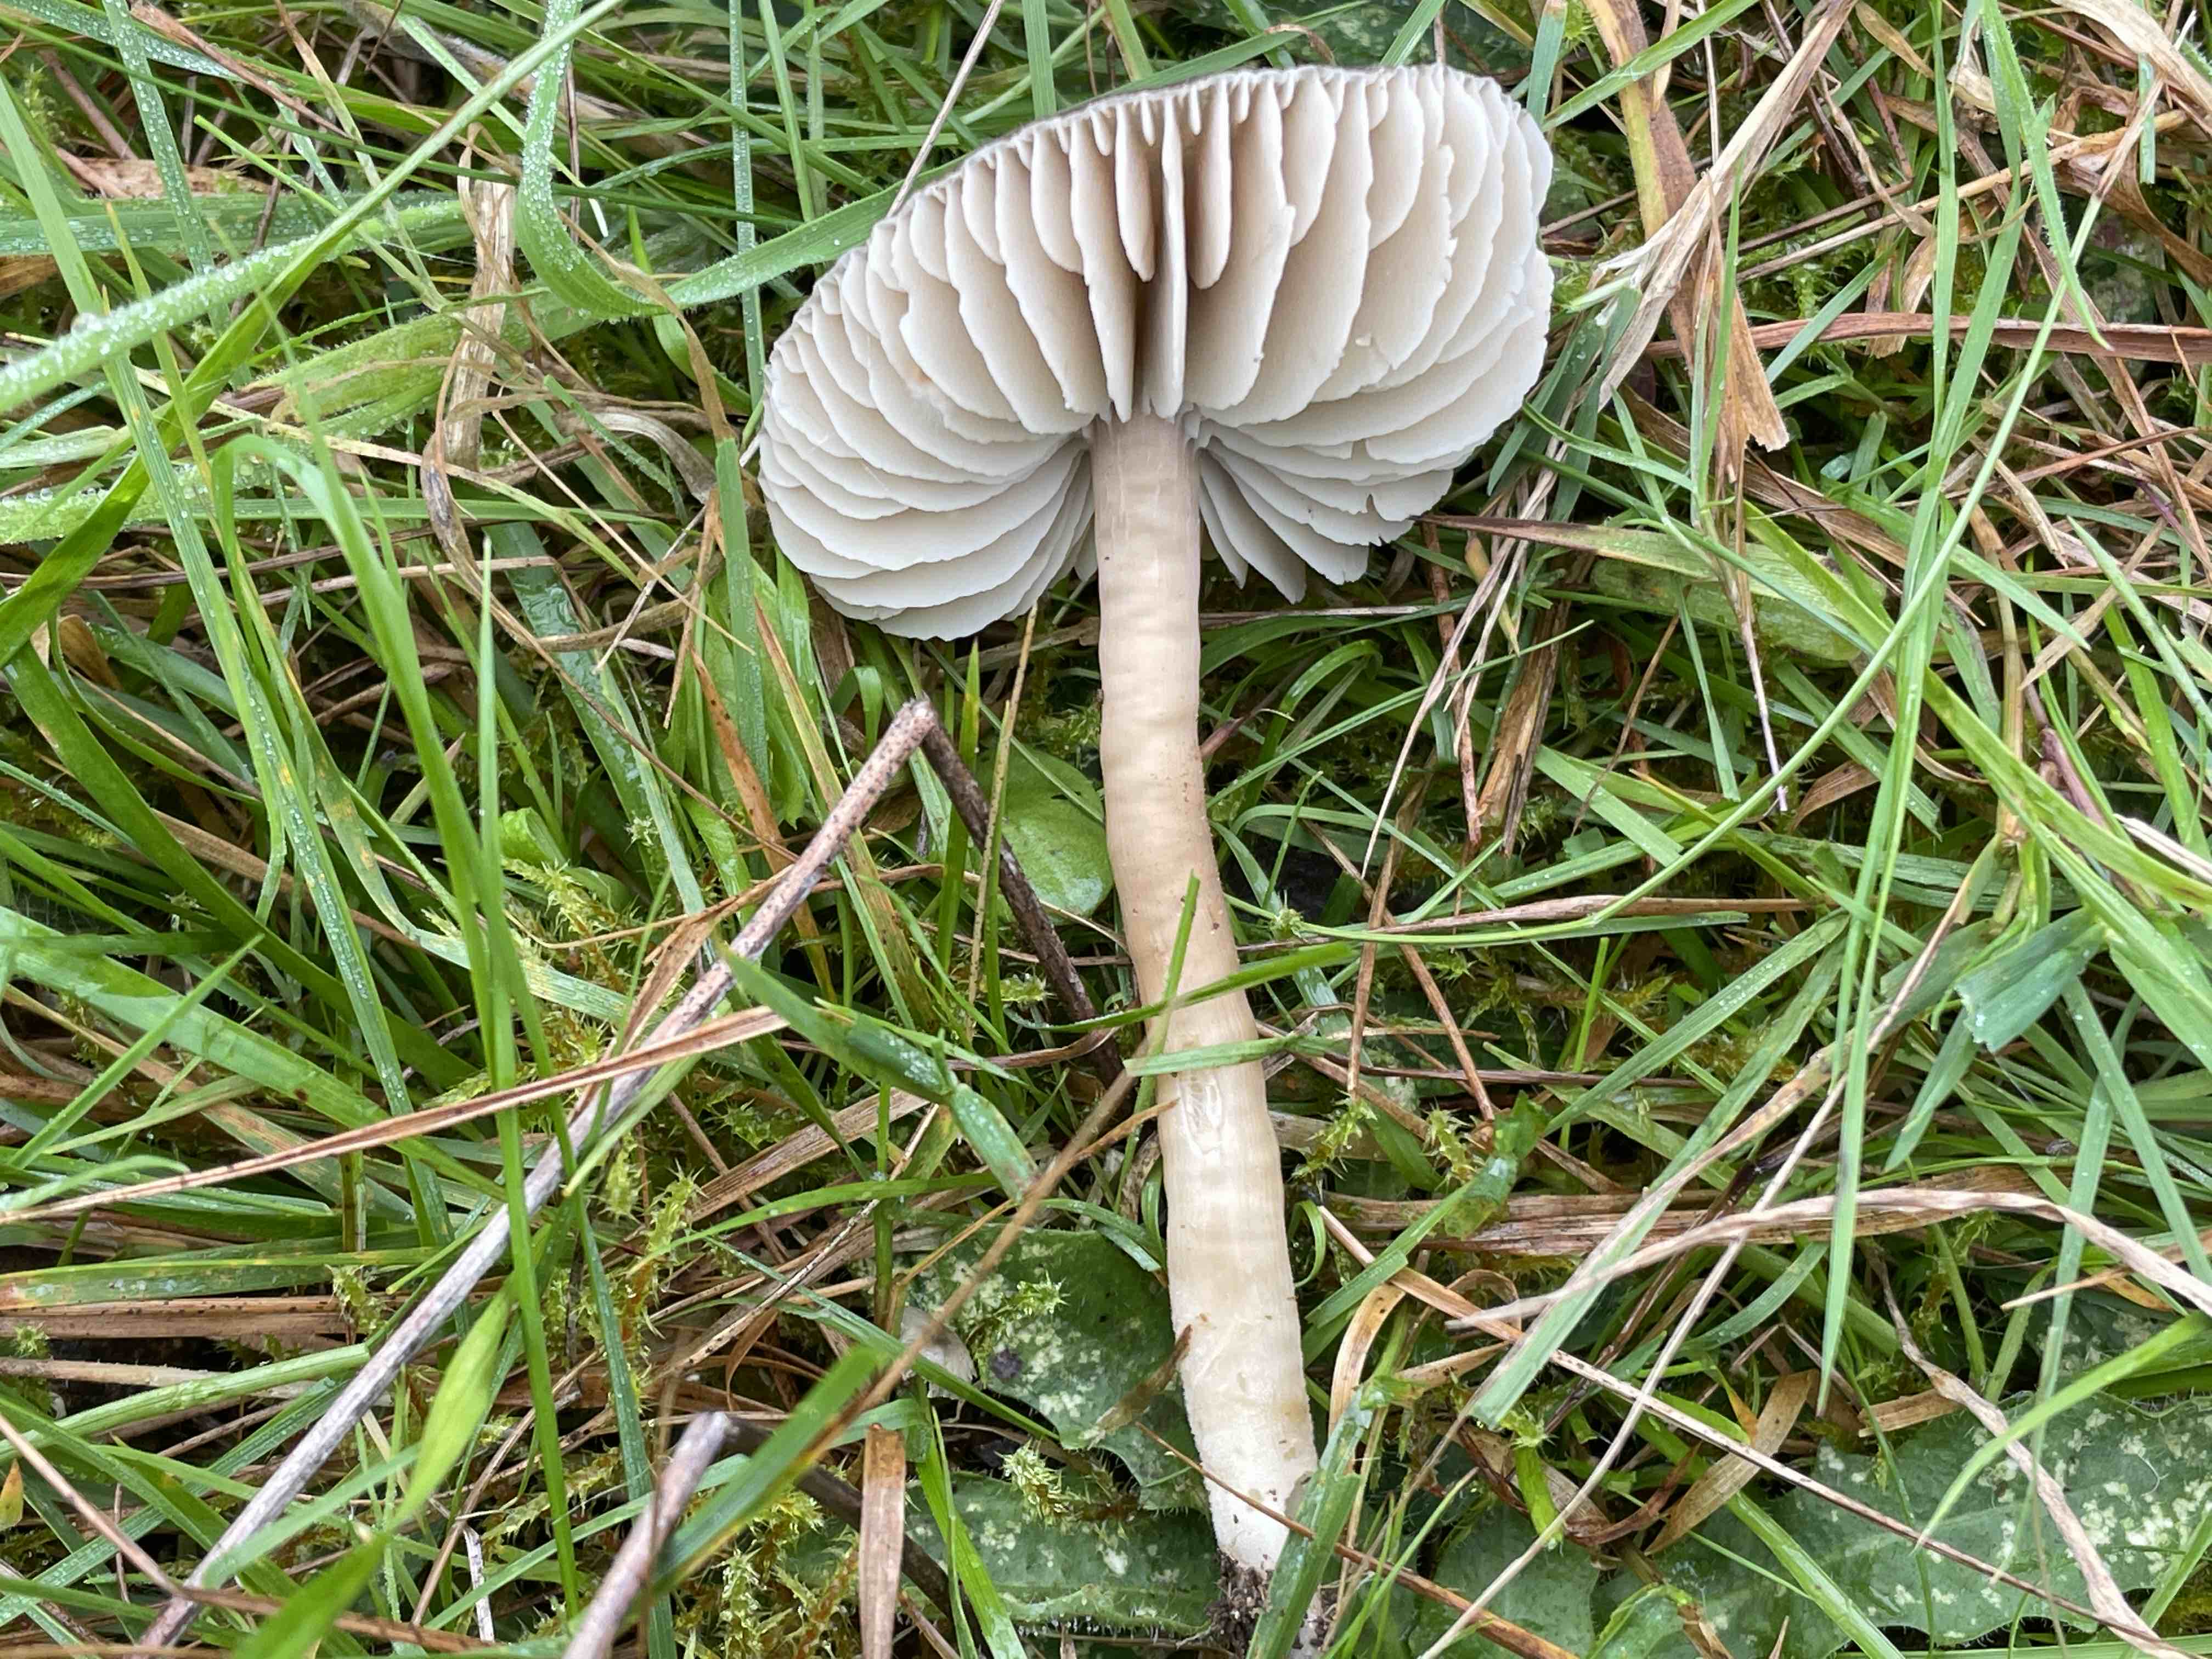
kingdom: Fungi
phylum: Basidiomycota
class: Agaricomycetes
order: Agaricales
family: Hygrophoraceae
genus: Neohygrocybe
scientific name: Neohygrocybe nitrata
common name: stinkende vokshat
